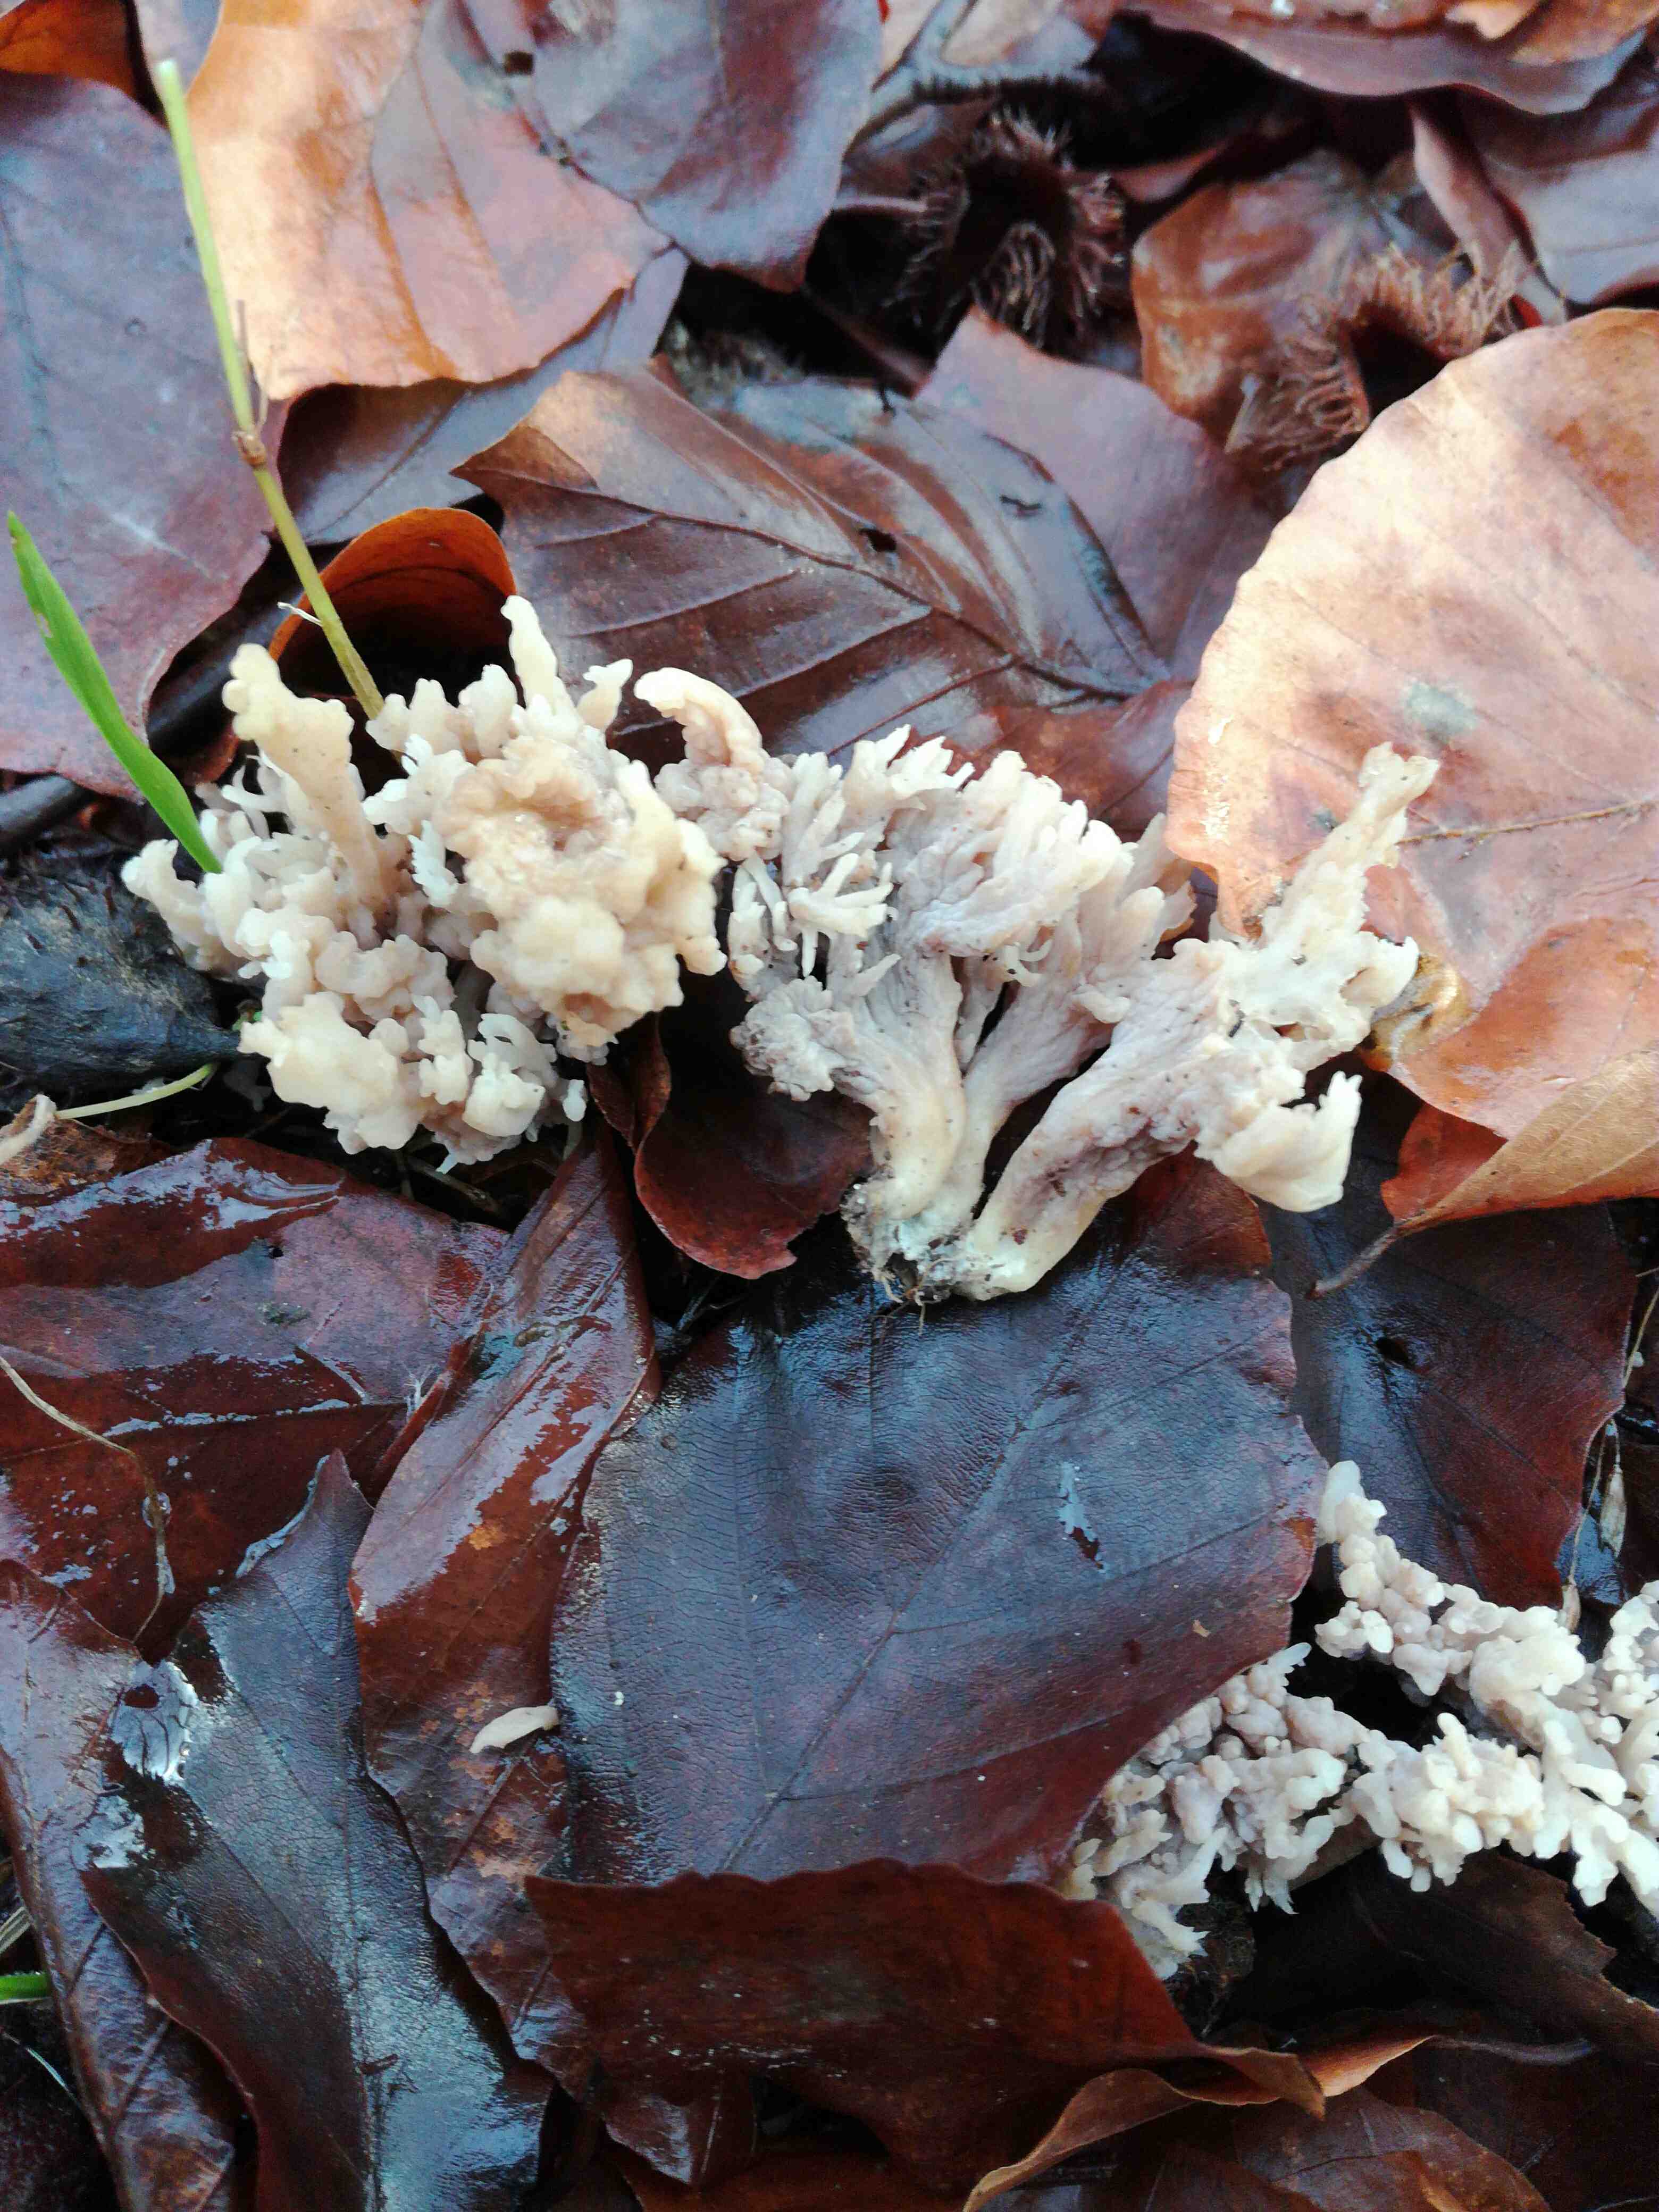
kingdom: Fungi
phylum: Basidiomycota
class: Agaricomycetes
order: Cantharellales
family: Hydnaceae
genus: Clavulina
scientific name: Clavulina
